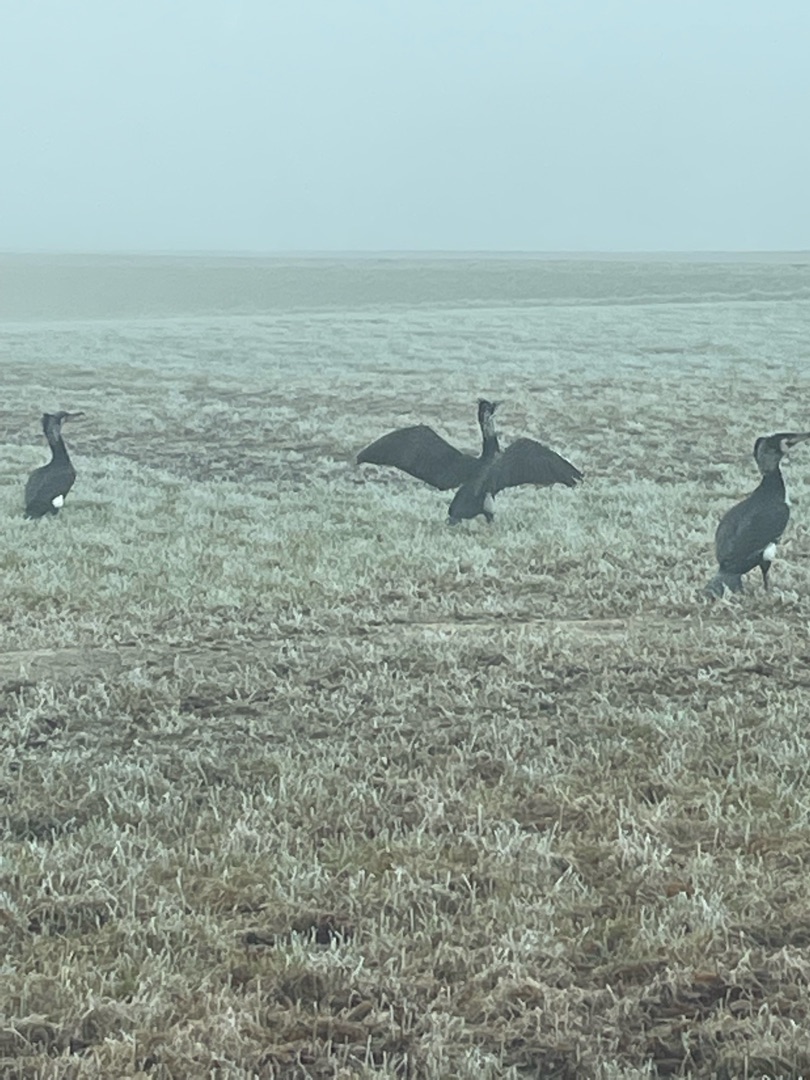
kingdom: Animalia
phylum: Chordata
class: Aves
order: Suliformes
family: Phalacrocoracidae
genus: Phalacrocorax
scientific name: Phalacrocorax carbo
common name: Skarv
